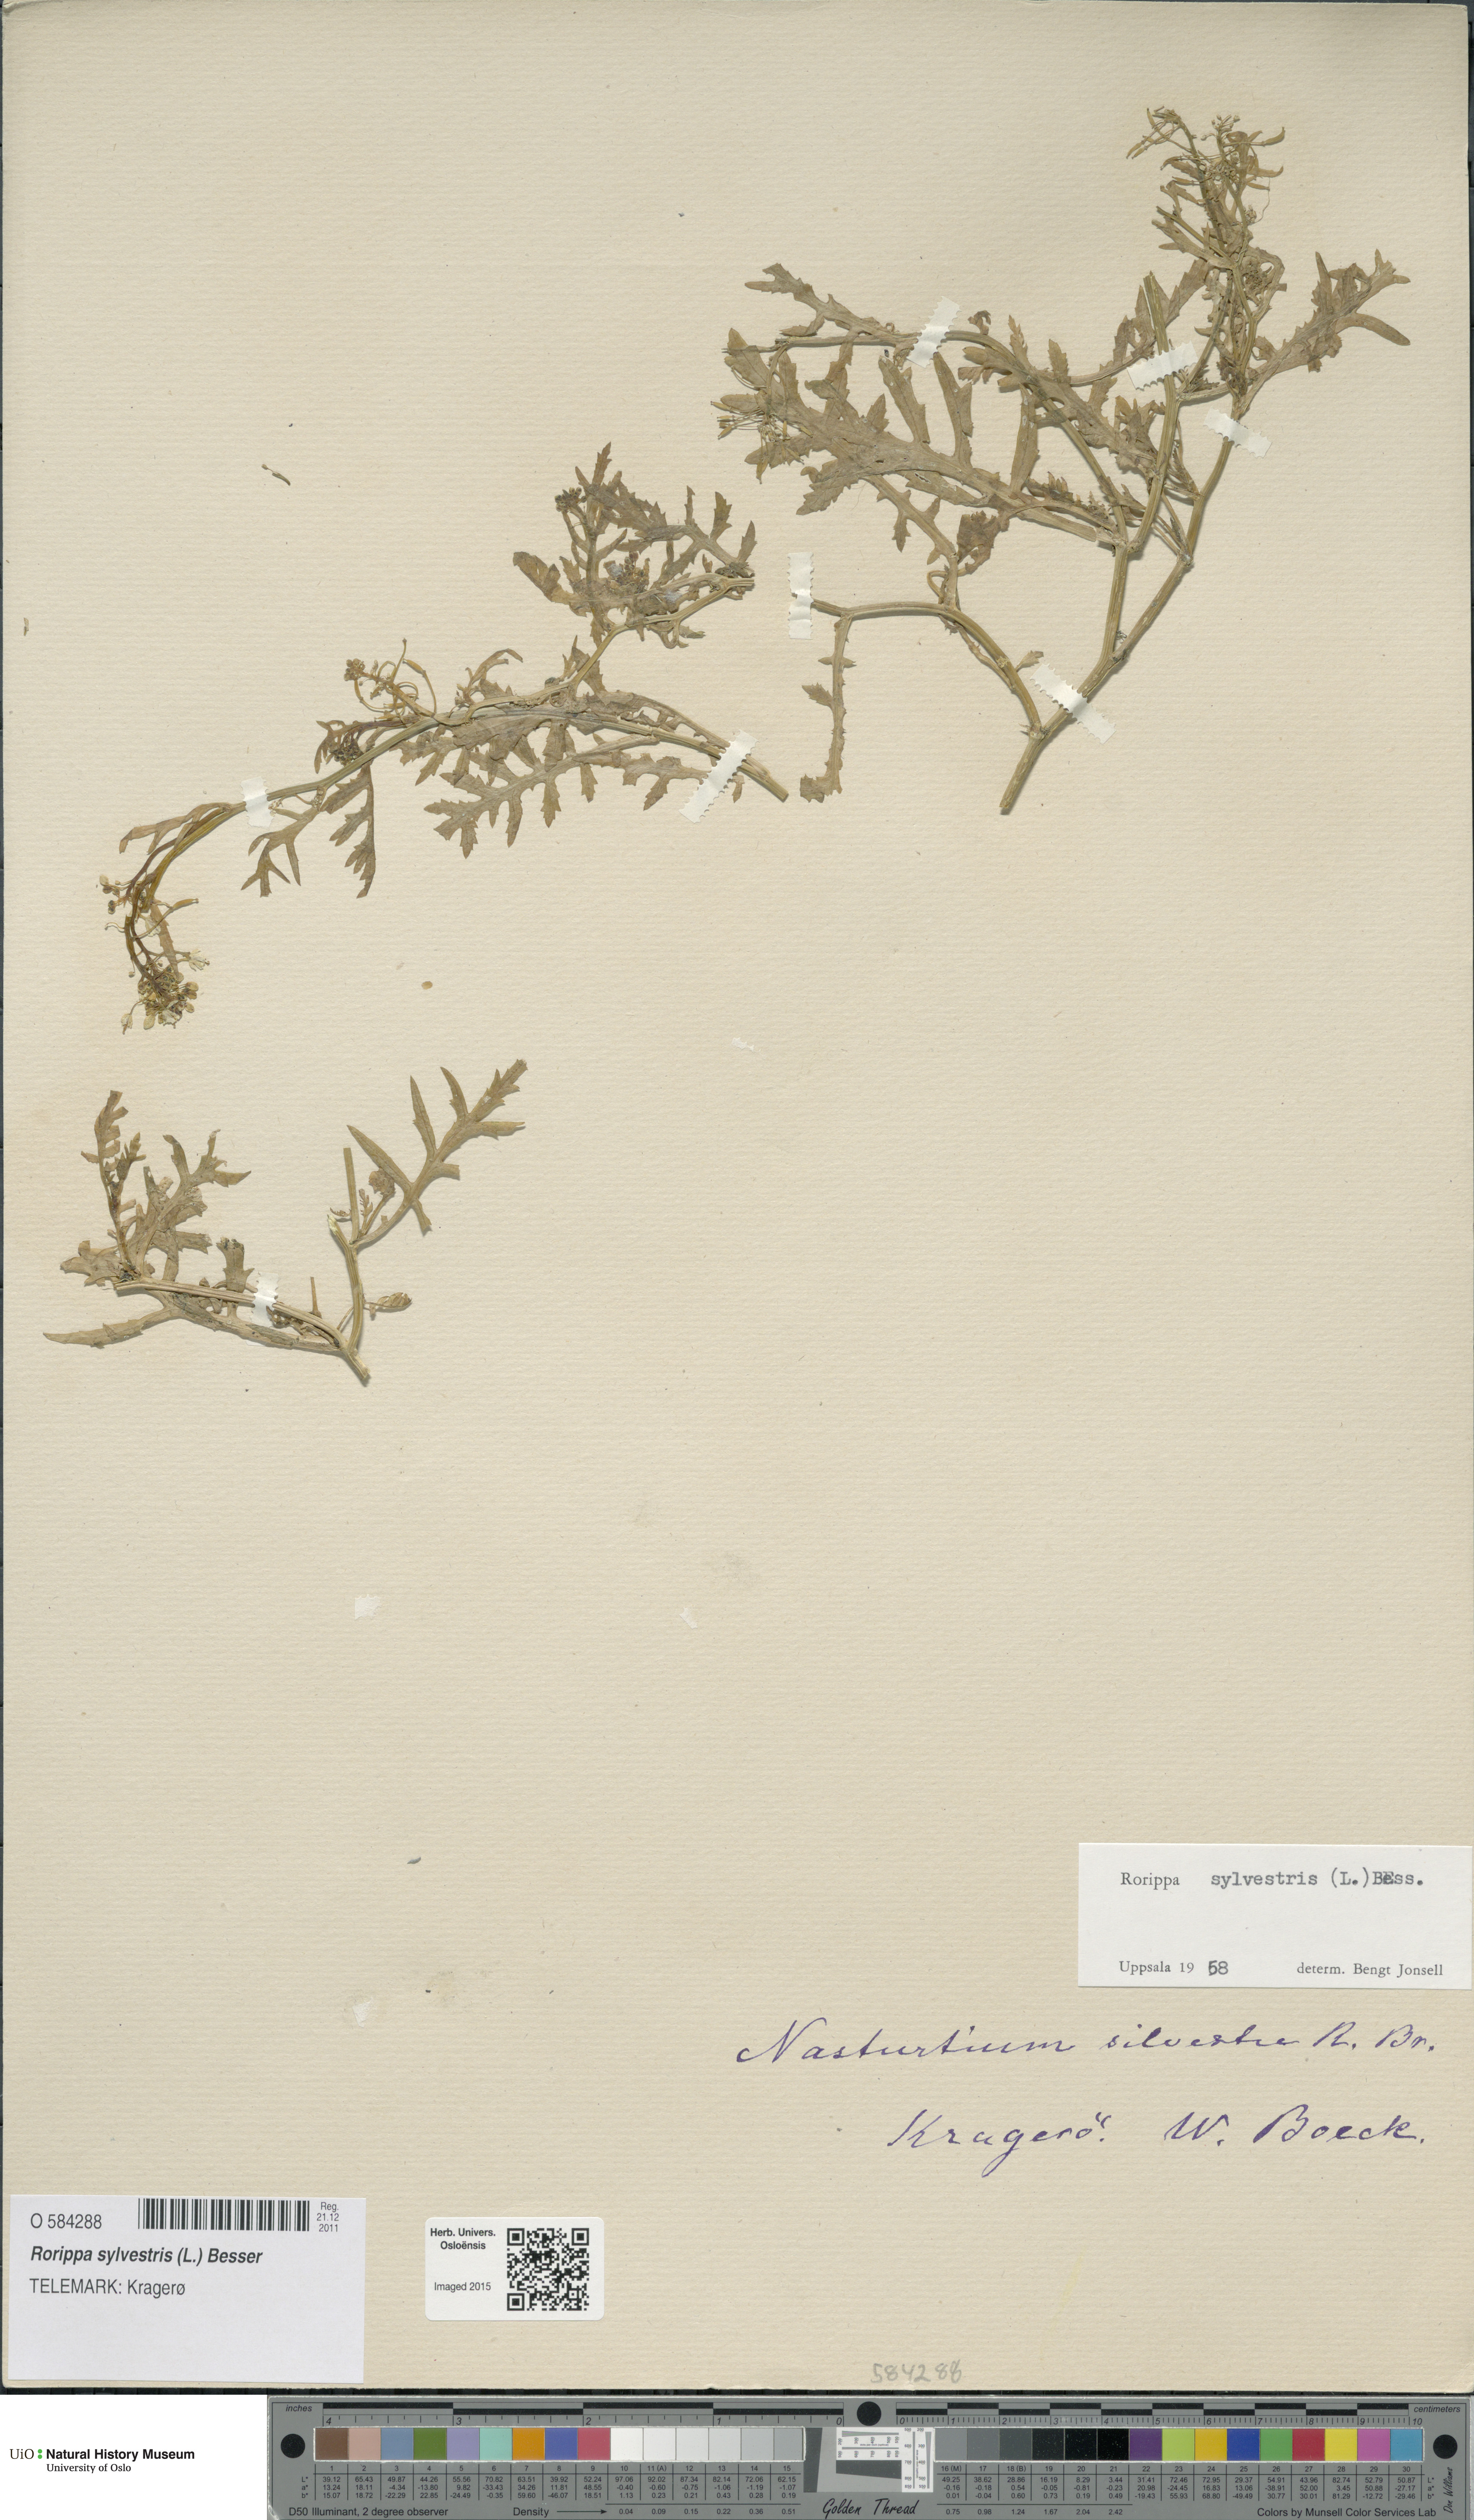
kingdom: Plantae
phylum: Tracheophyta
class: Magnoliopsida
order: Brassicales
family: Brassicaceae
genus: Rorippa
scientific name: Rorippa sylvestris
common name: Creeping yellowcress
